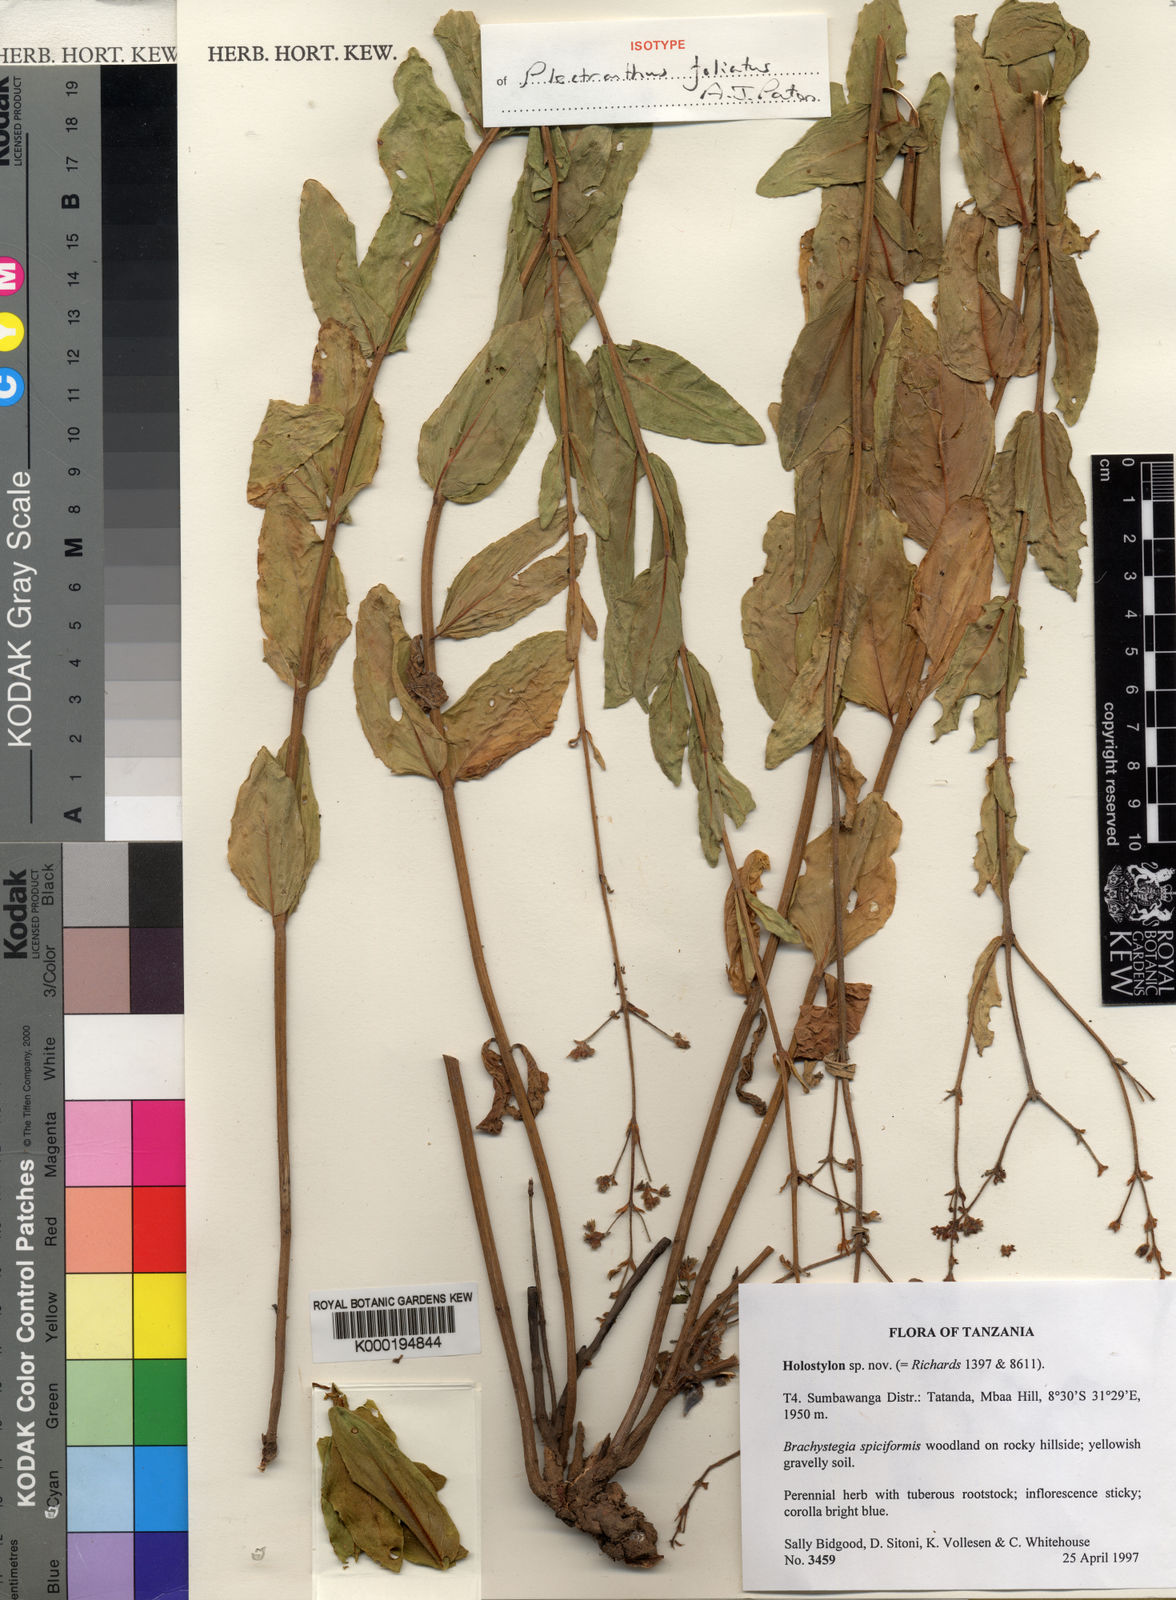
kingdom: Plantae
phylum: Tracheophyta
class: Magnoliopsida
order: Lamiales
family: Lamiaceae
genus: Coleus
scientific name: Coleus foliatus
